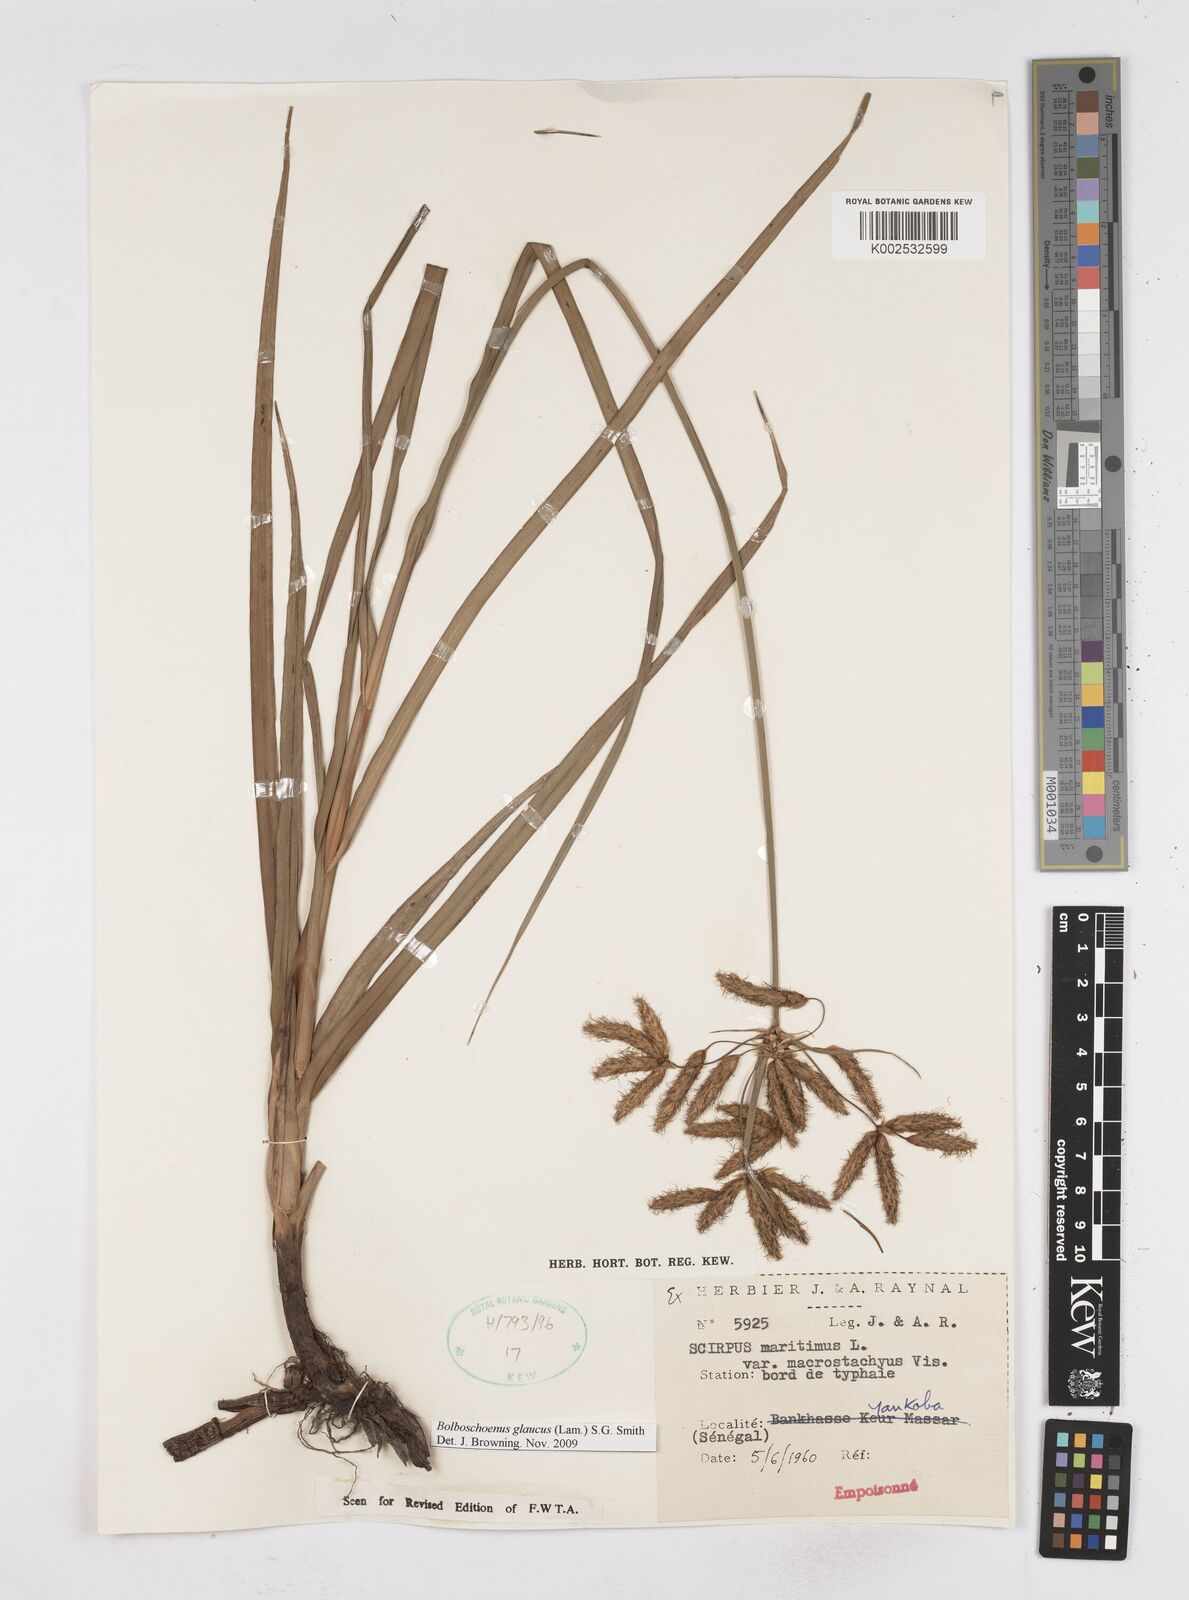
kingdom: Plantae
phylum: Tracheophyta
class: Liliopsida
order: Poales
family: Cyperaceae
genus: Bolboschoenus
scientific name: Bolboschoenus glaucus
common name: Tuberous bulrush
